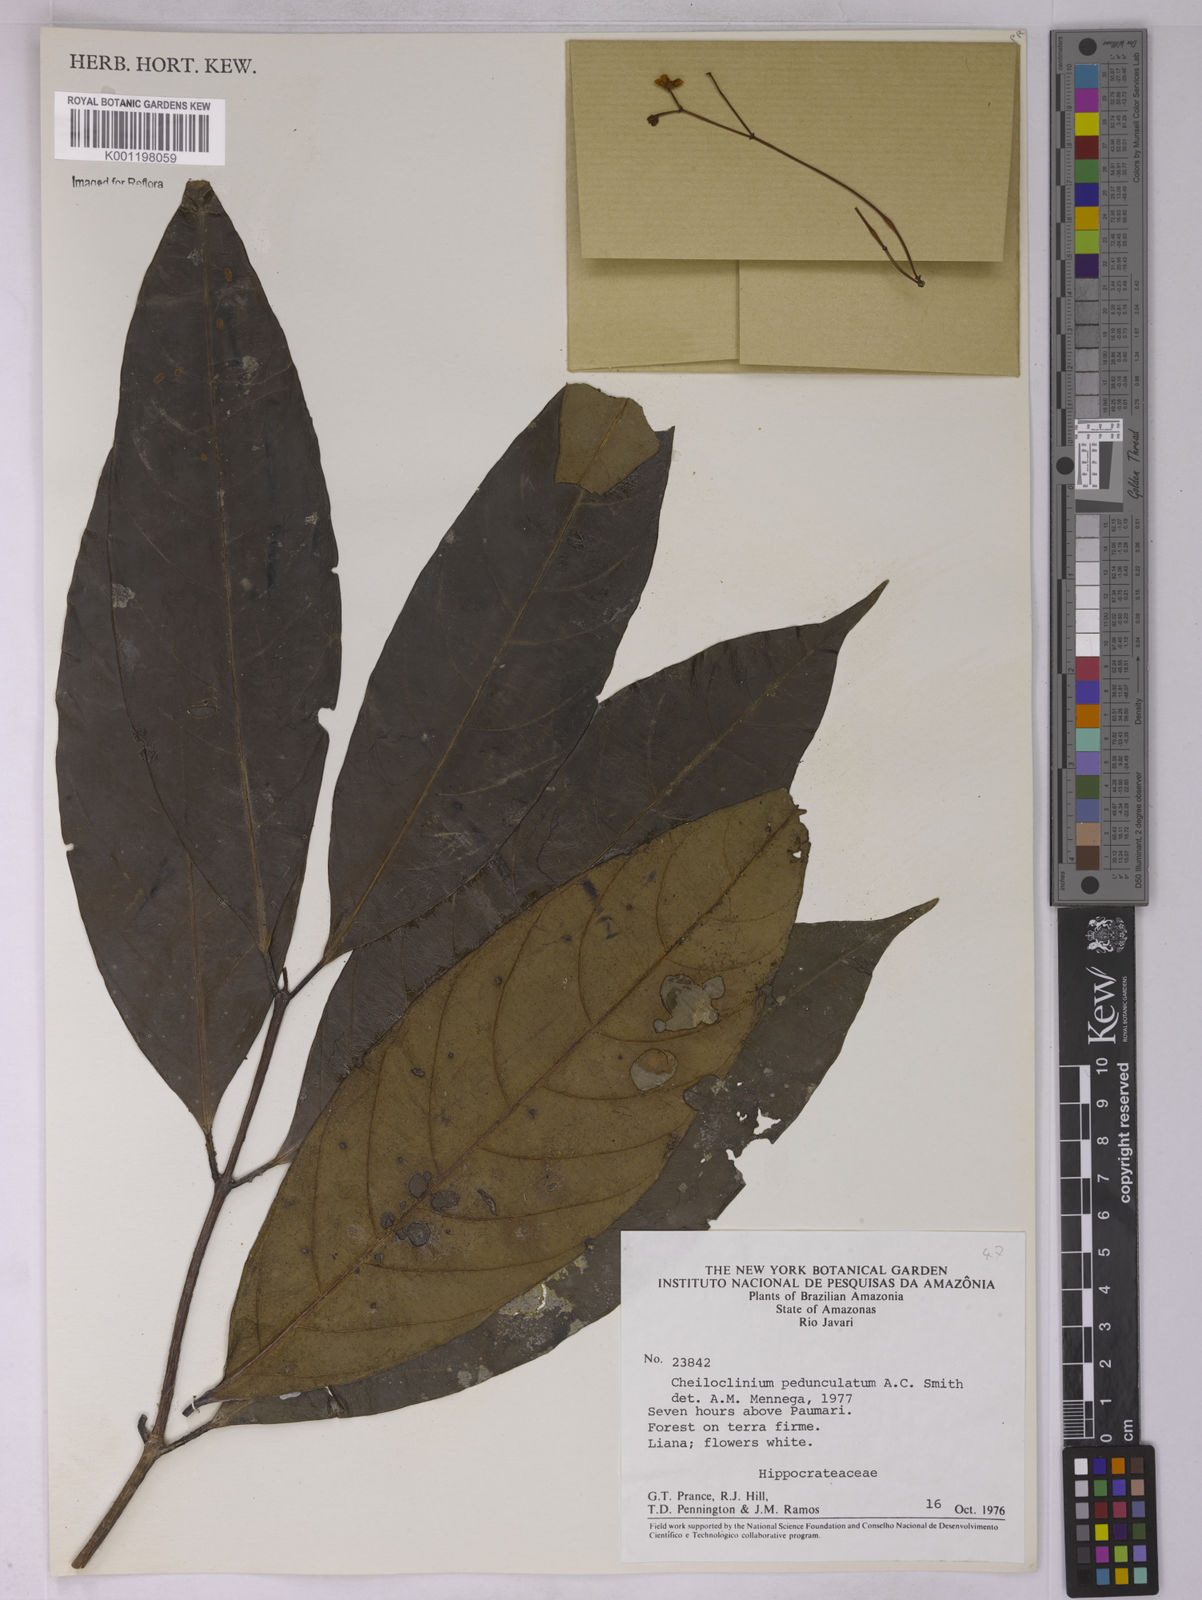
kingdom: Plantae
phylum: Tracheophyta
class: Magnoliopsida
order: Celastrales
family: Celastraceae
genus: Cheiloclinium
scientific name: Cheiloclinium pedunculatum
